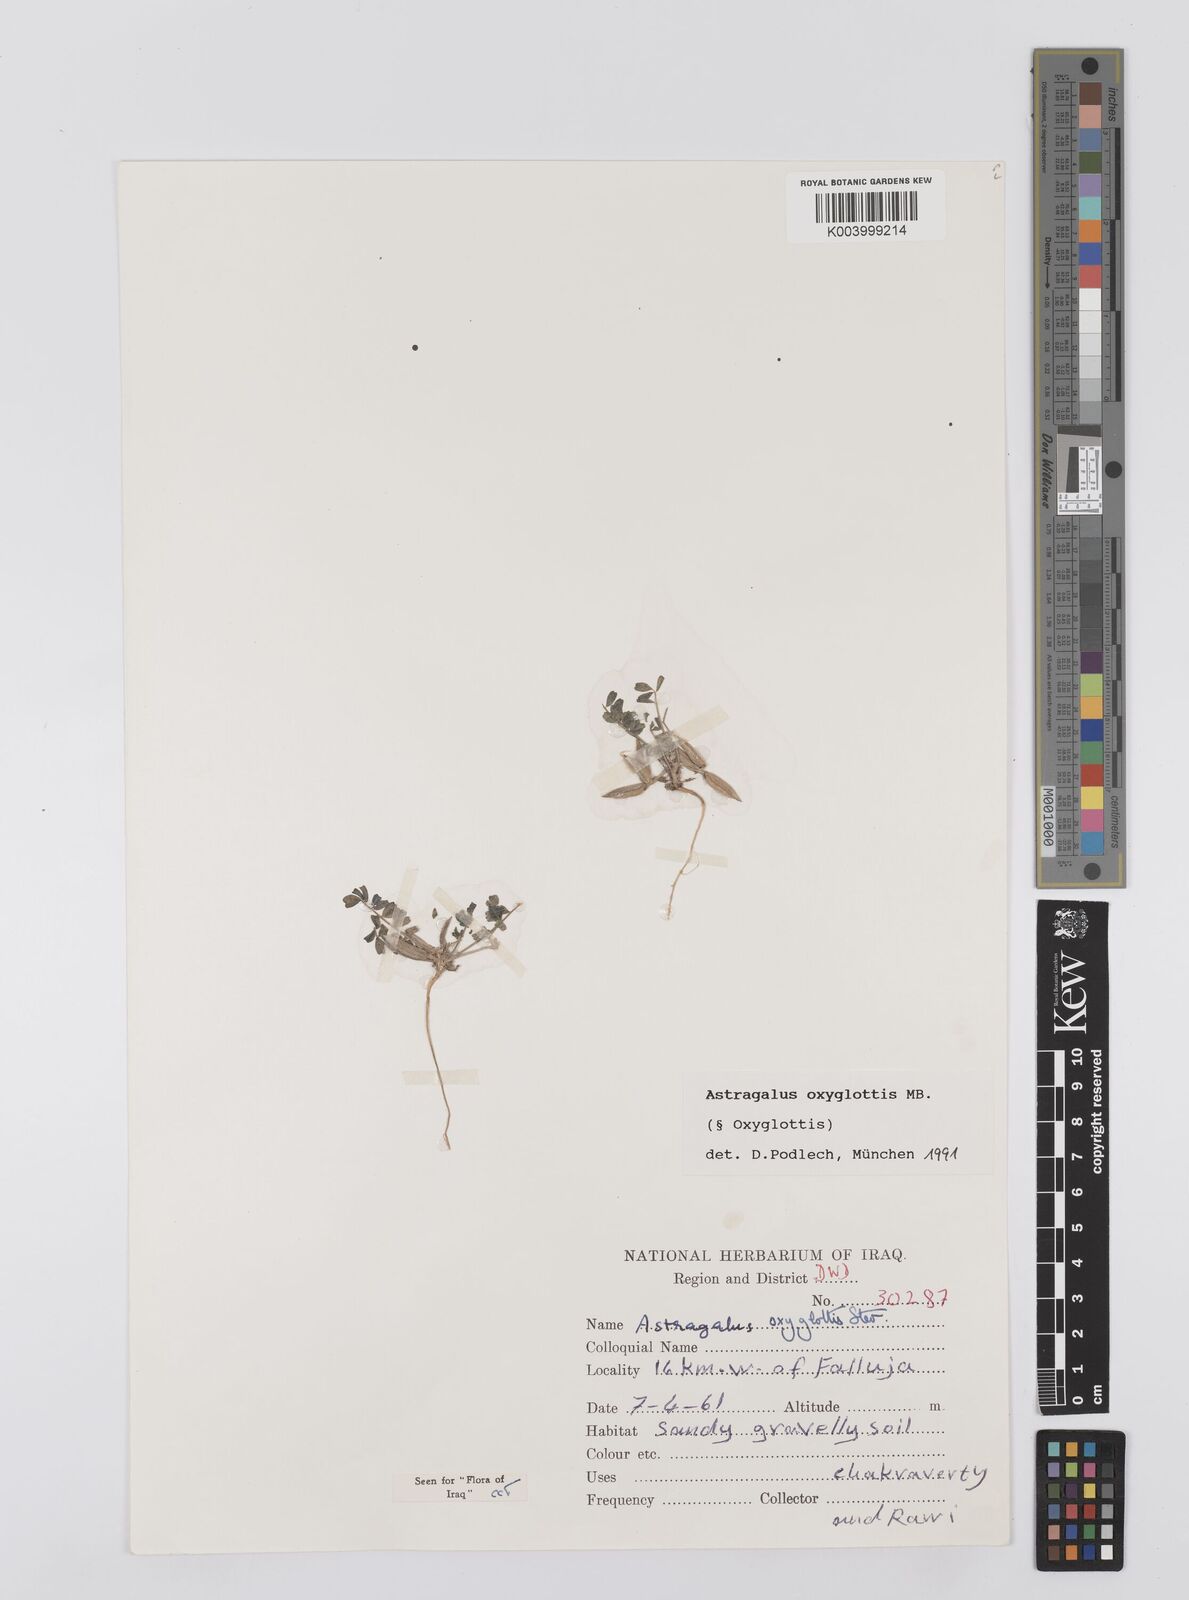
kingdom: Plantae
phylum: Tracheophyta
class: Magnoliopsida
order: Fabales
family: Fabaceae
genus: Astragalus
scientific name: Astragalus oxyglottis
